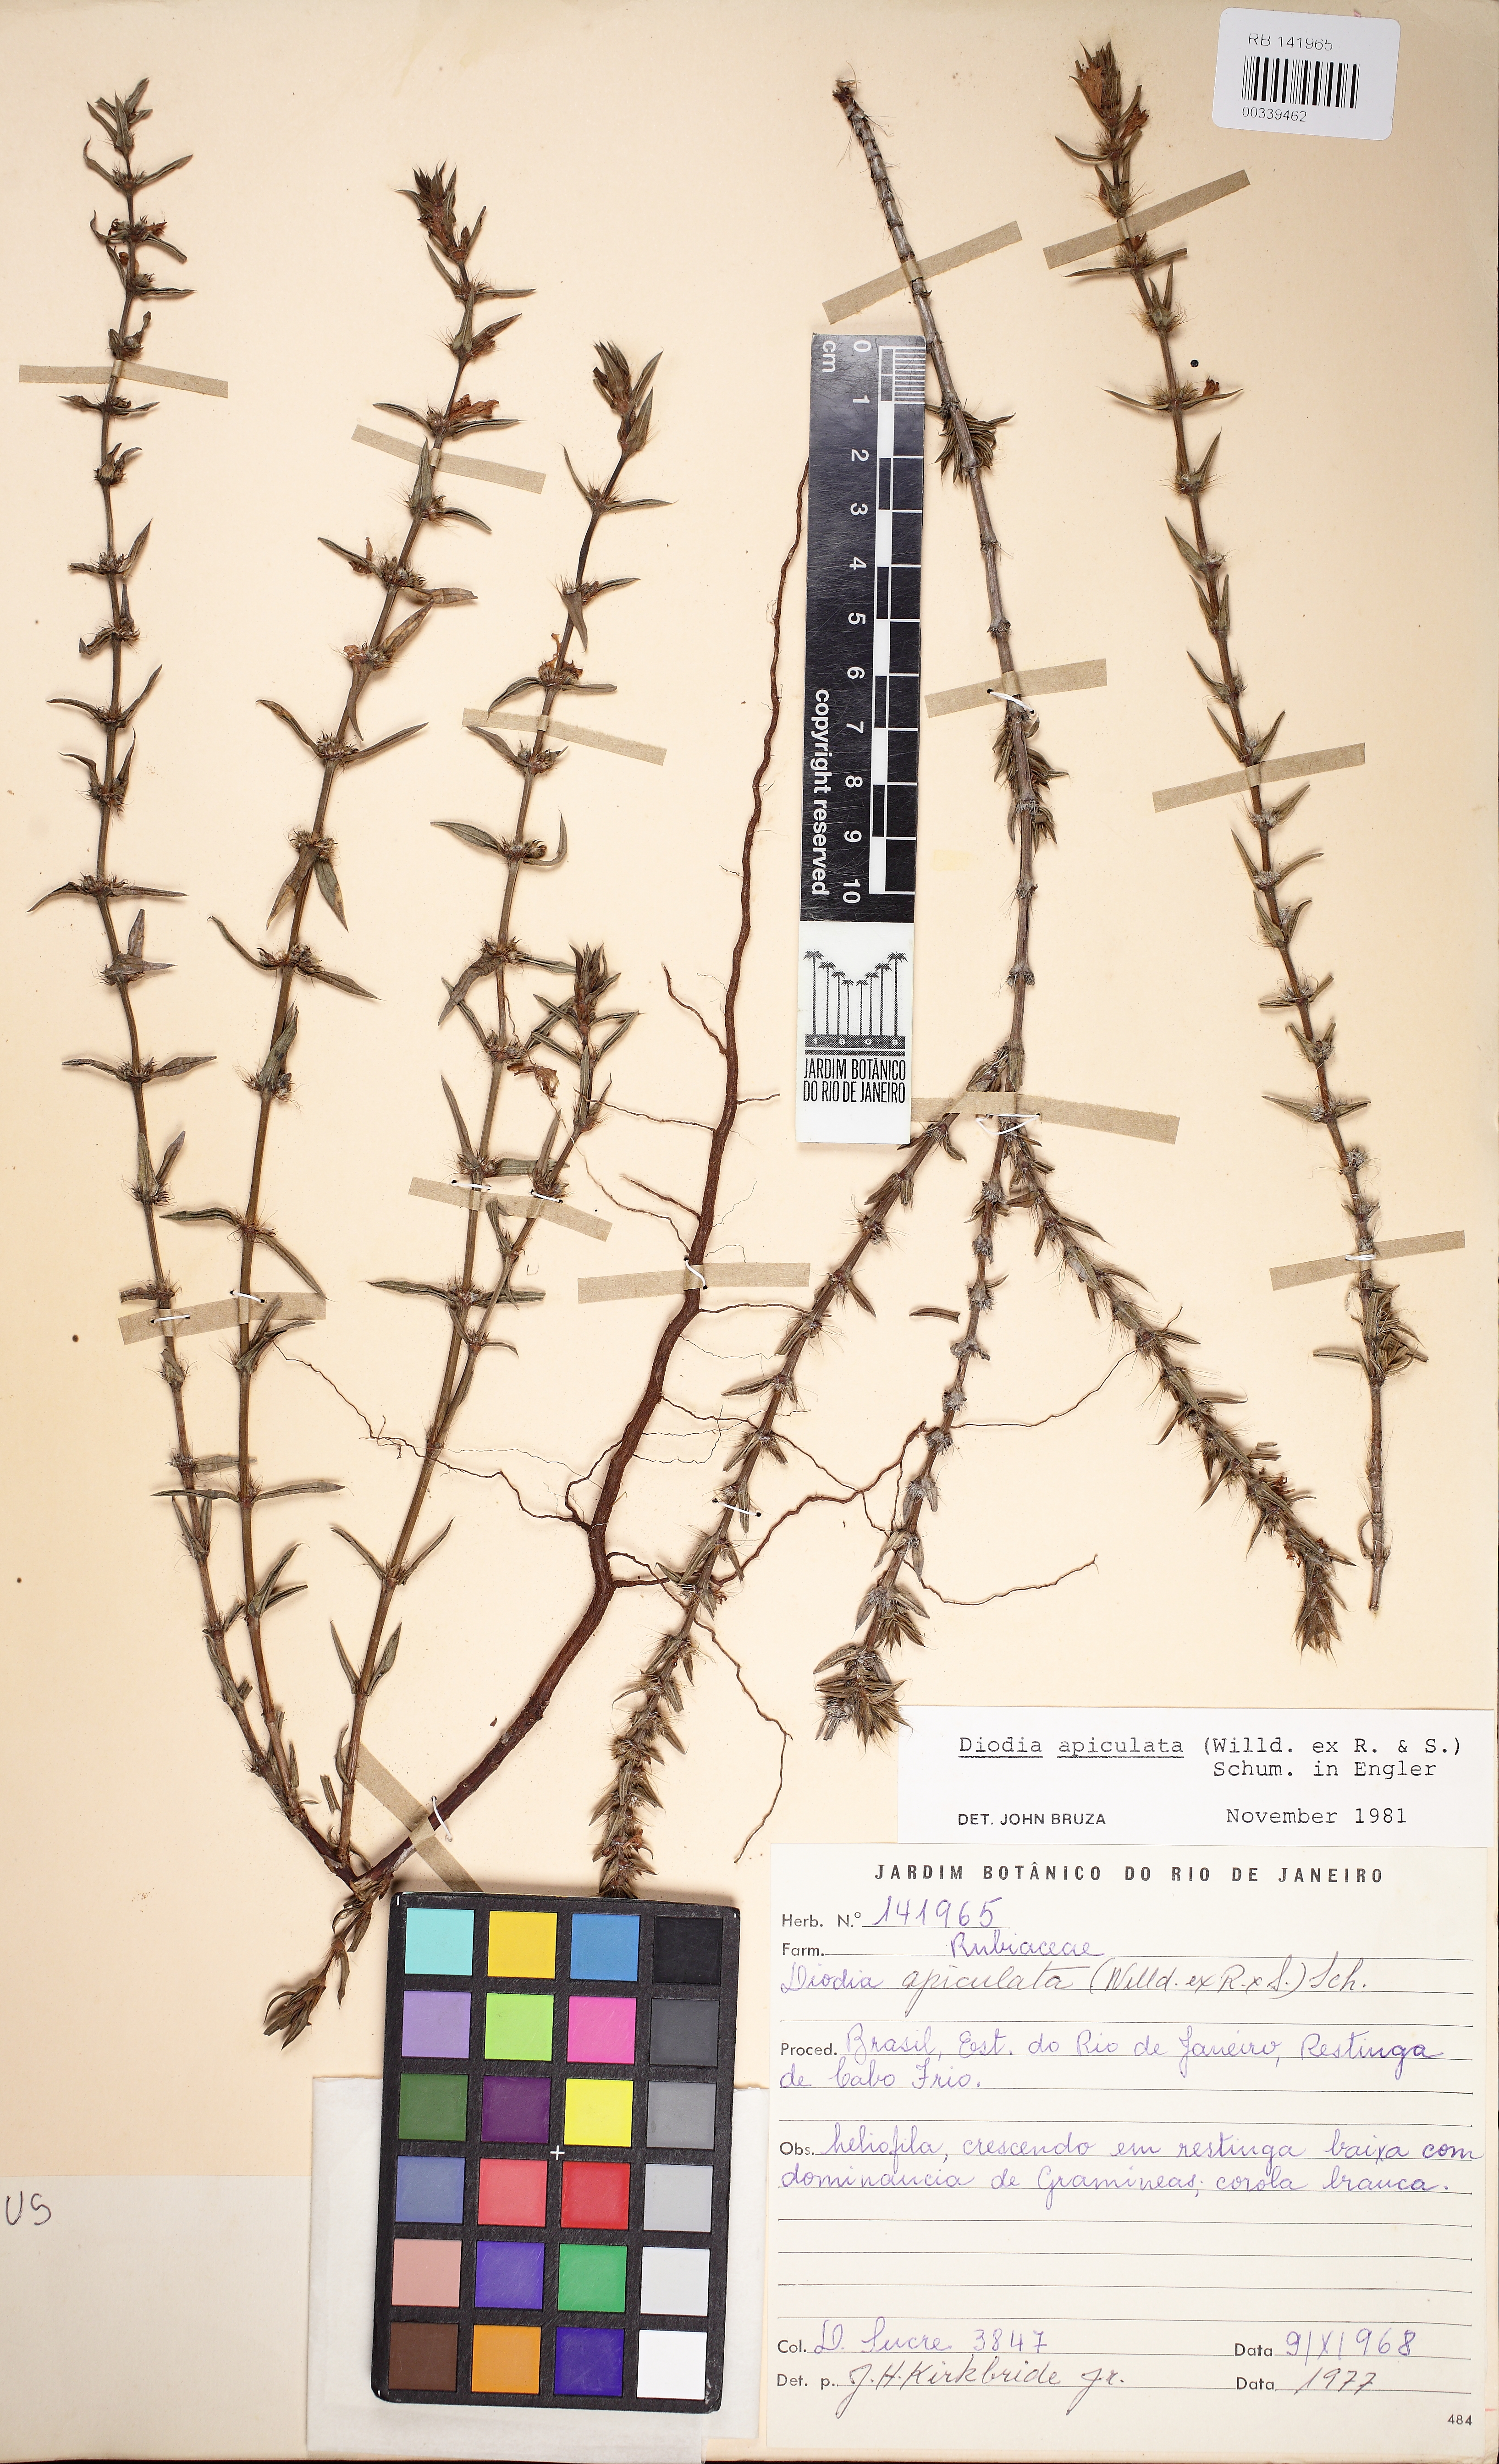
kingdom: Plantae
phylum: Tracheophyta
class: Magnoliopsida
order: Gentianales
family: Rubiaceae
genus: Hexasepalum
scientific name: Hexasepalum apiculatum
